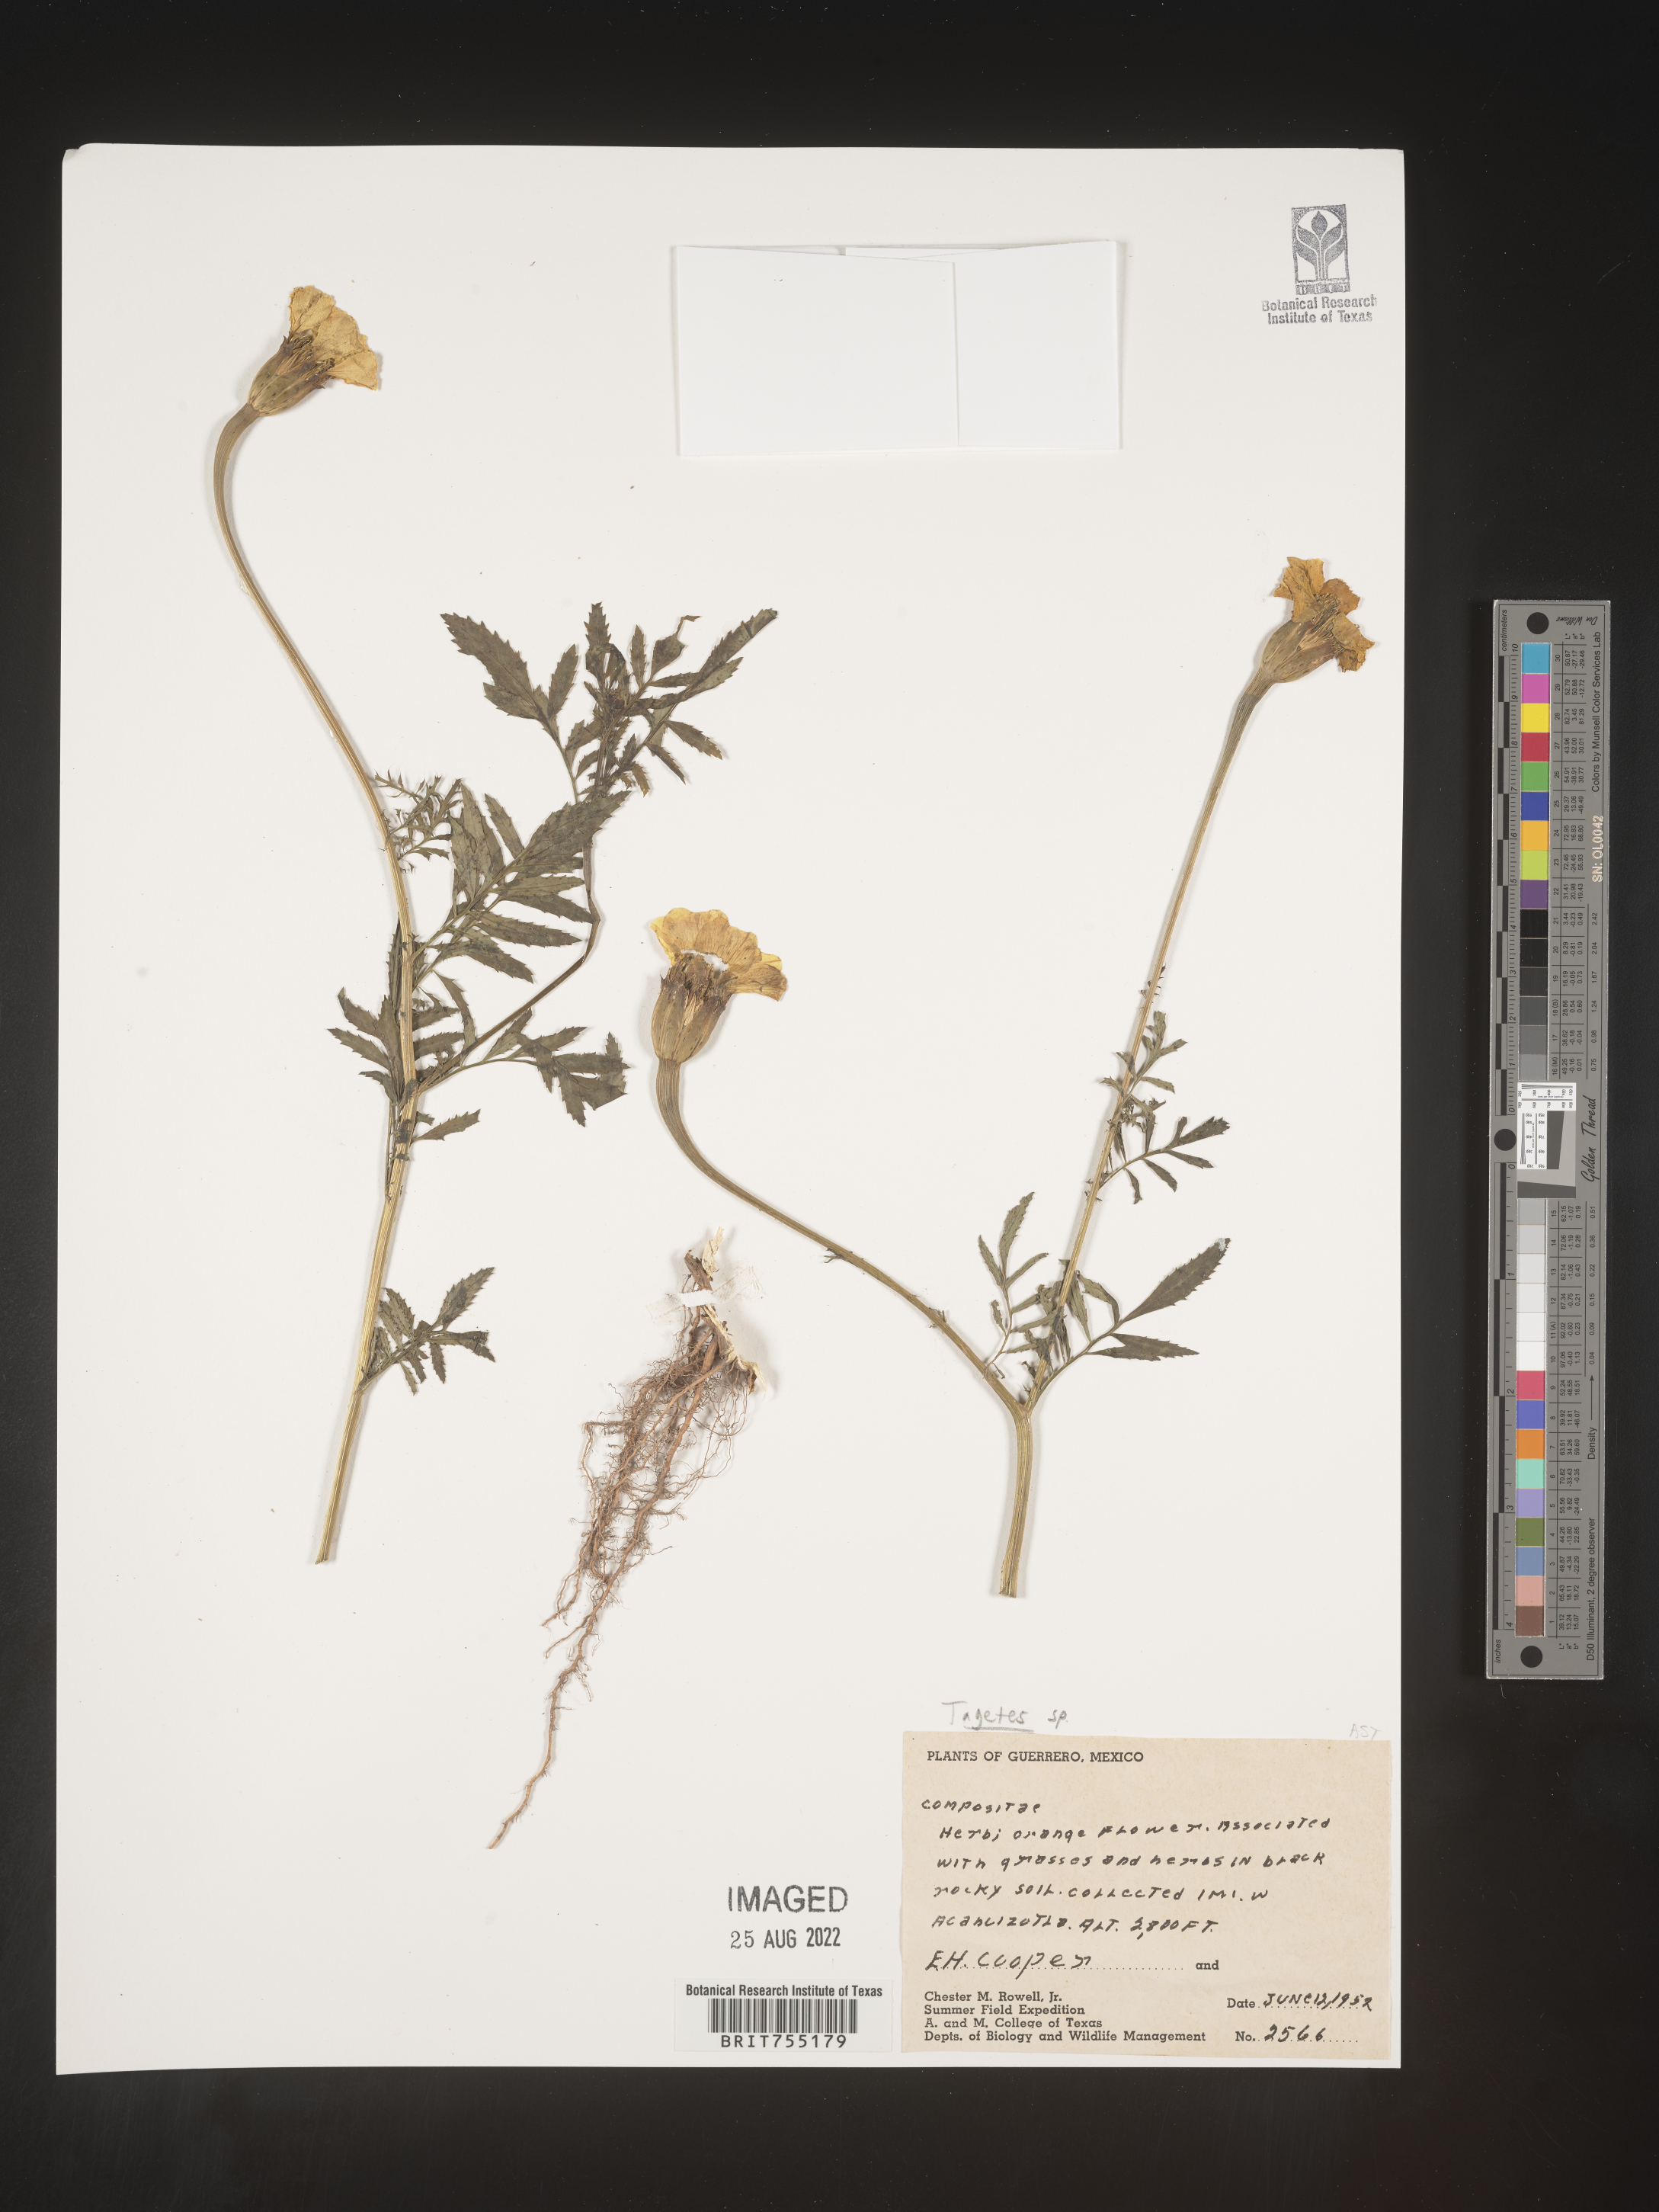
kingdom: Plantae
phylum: Tracheophyta
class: Magnoliopsida
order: Asterales
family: Asteraceae
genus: Tagetes
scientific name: Tagetes
